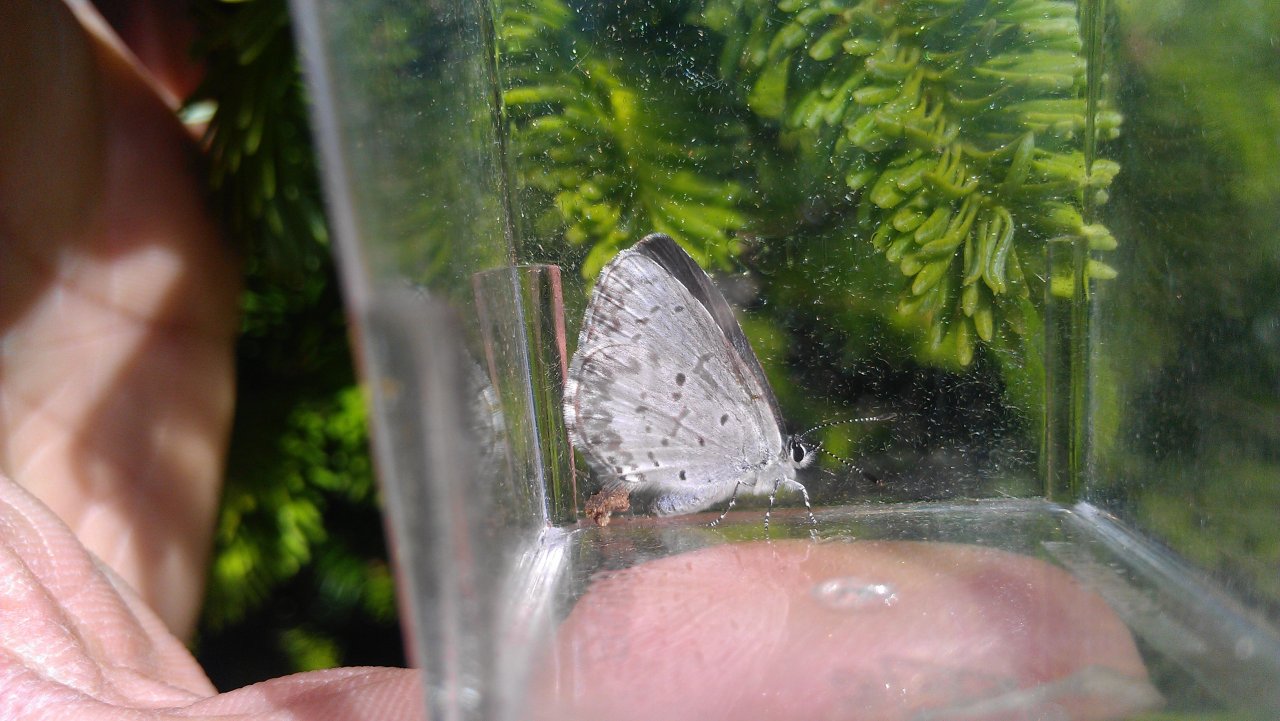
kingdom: Animalia
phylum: Arthropoda
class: Insecta
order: Lepidoptera
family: Lycaenidae
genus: Celastrina
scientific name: Celastrina lucia
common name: Northern Spring Azure
